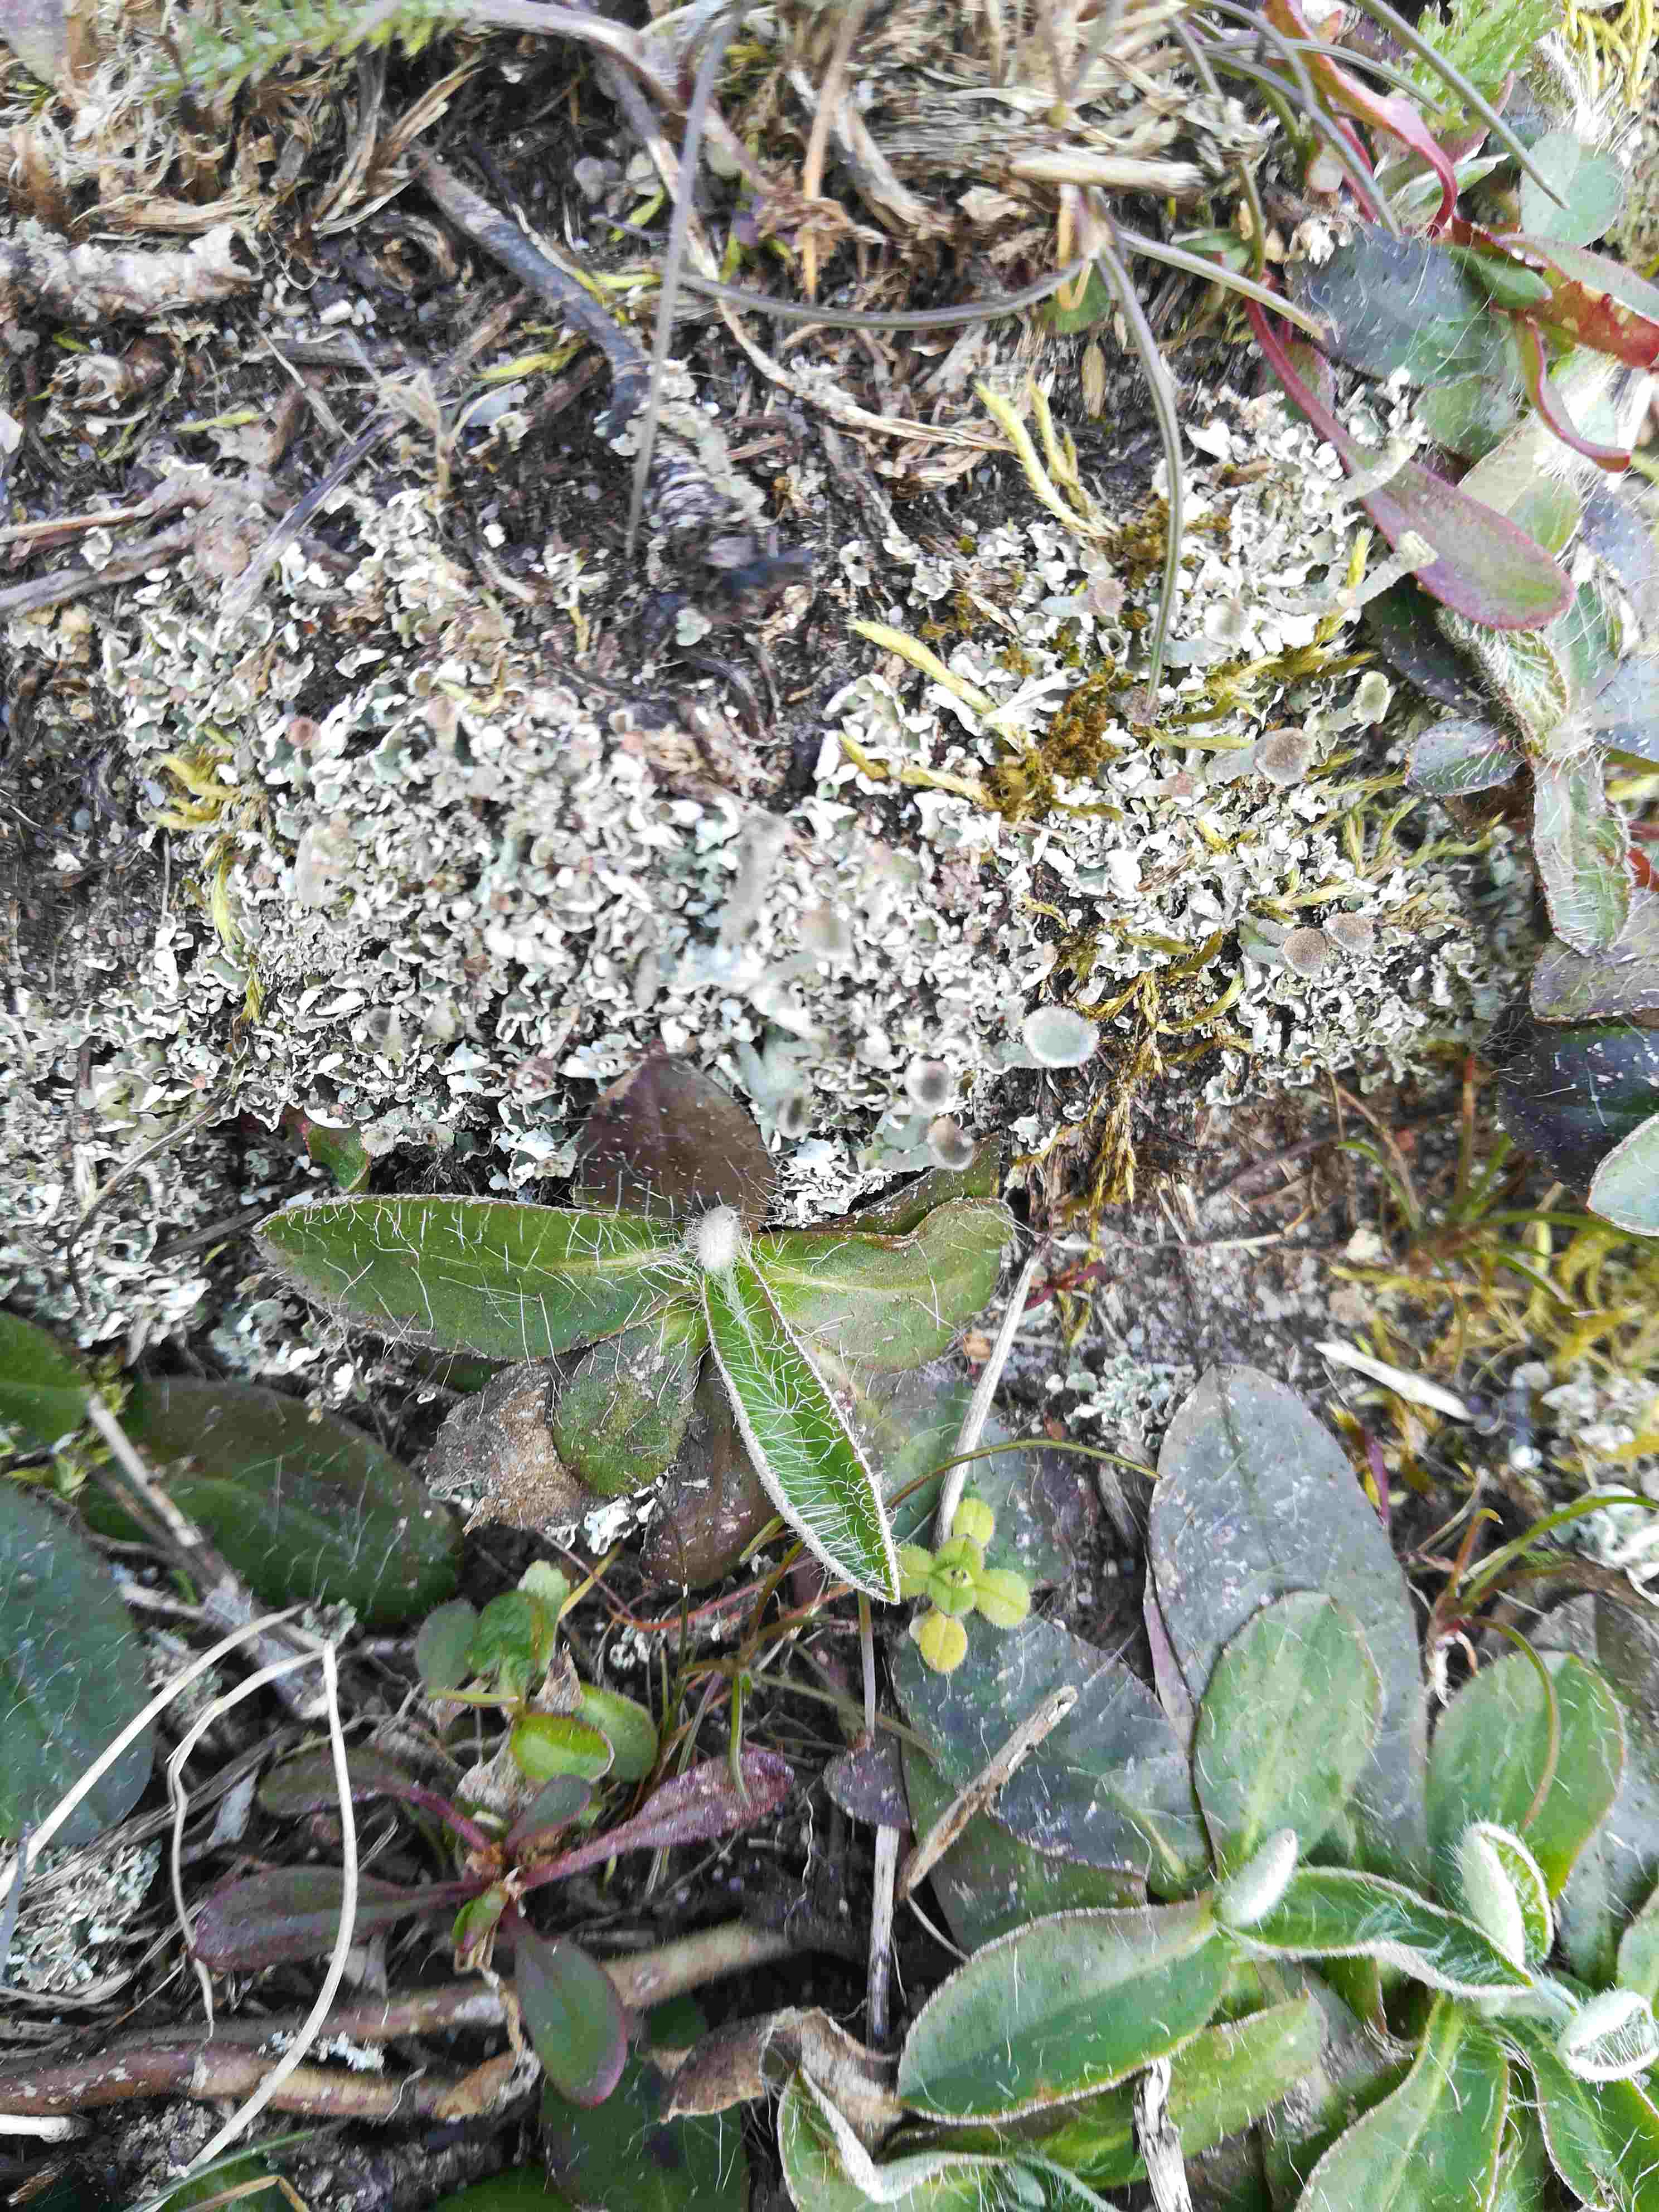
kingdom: Fungi
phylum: Ascomycota
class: Lecanoromycetes
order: Lecanorales
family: Cladoniaceae
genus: Cladonia
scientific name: Cladonia
